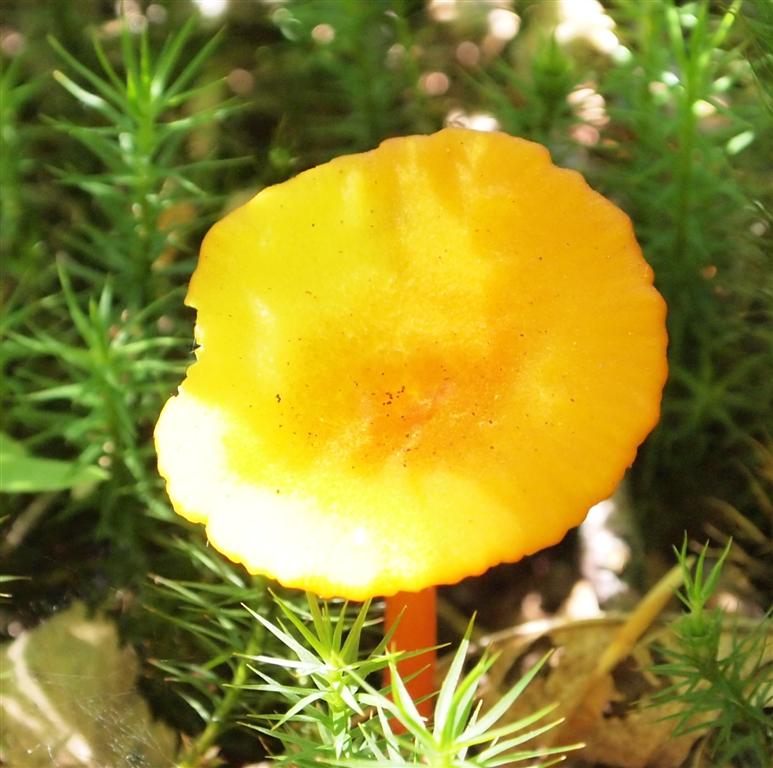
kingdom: Fungi
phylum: Basidiomycota
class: Agaricomycetes
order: Agaricales
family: Hygrophoraceae
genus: Hygrocybe
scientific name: Hygrocybe cantharellus
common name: kantarel-vokshat
